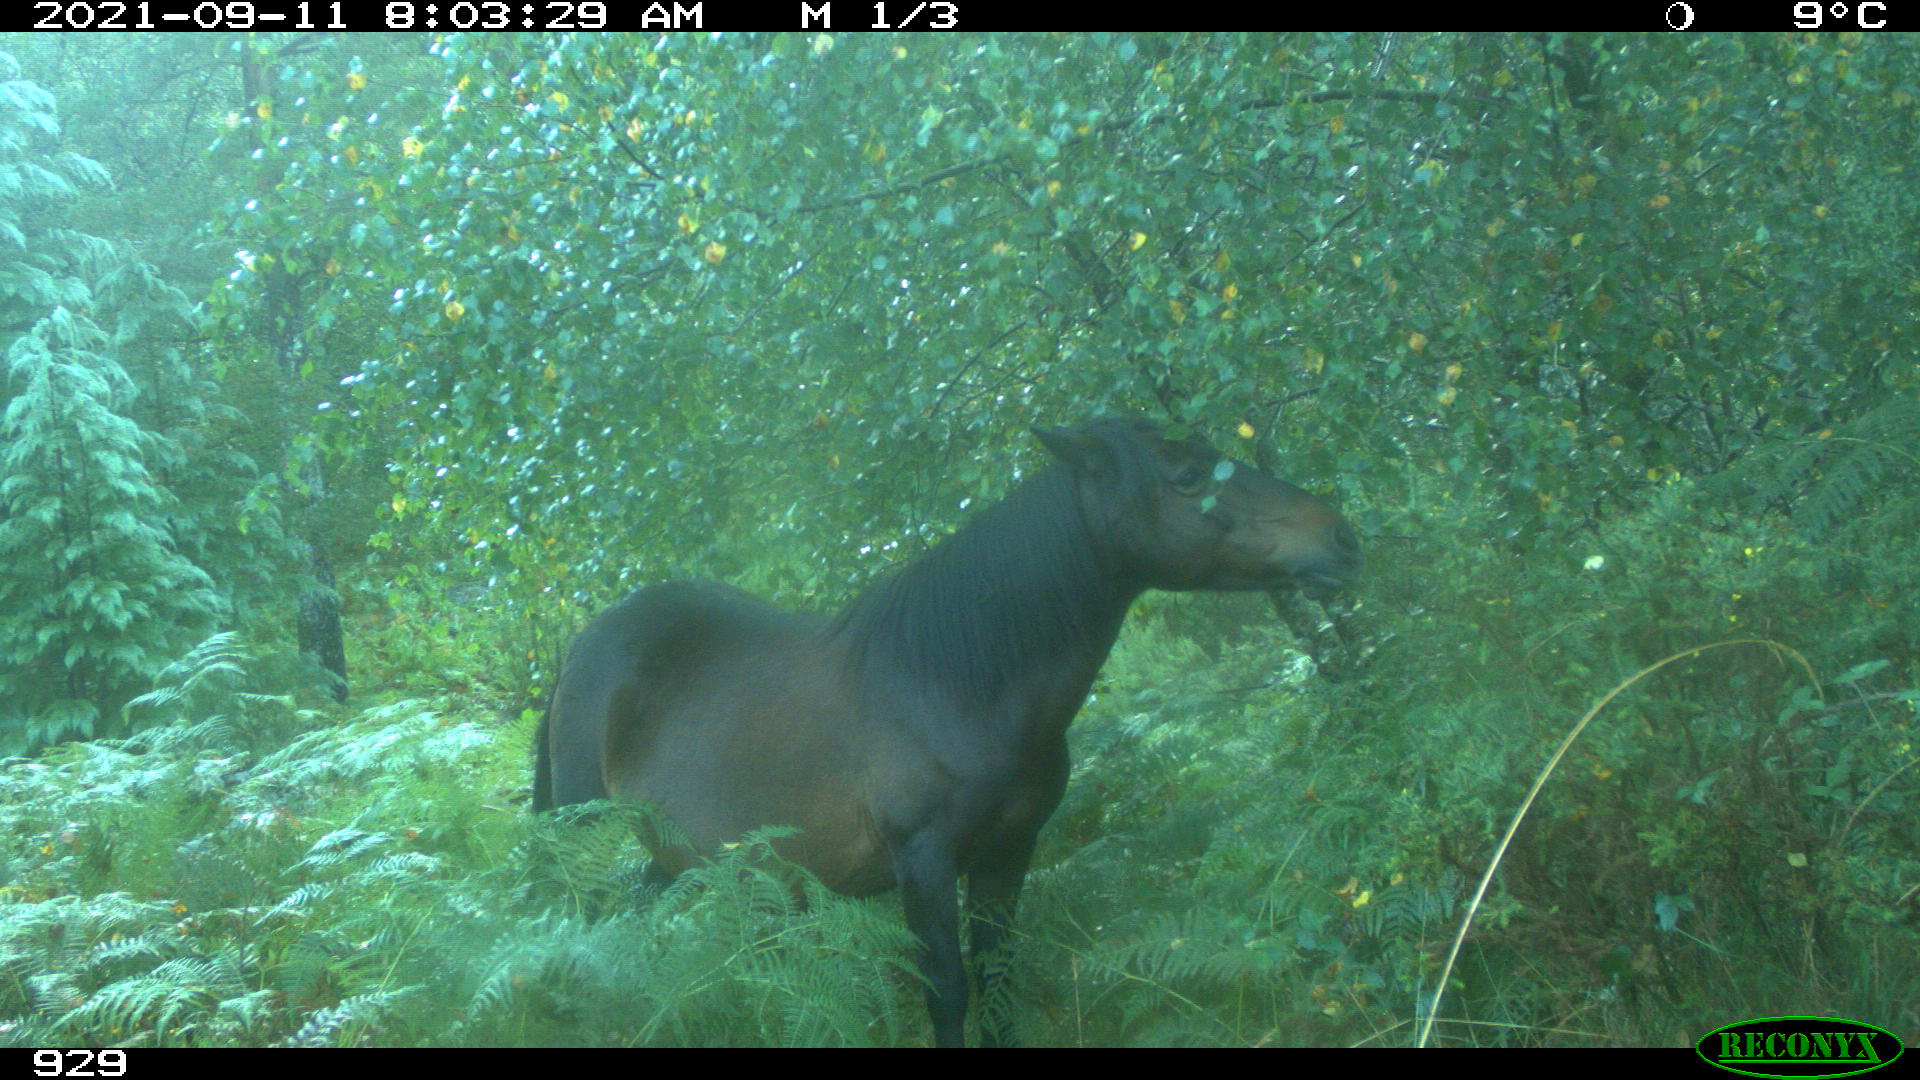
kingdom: Animalia
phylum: Chordata
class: Mammalia
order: Perissodactyla
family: Equidae
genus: Equus
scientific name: Equus caballus
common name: Horse
